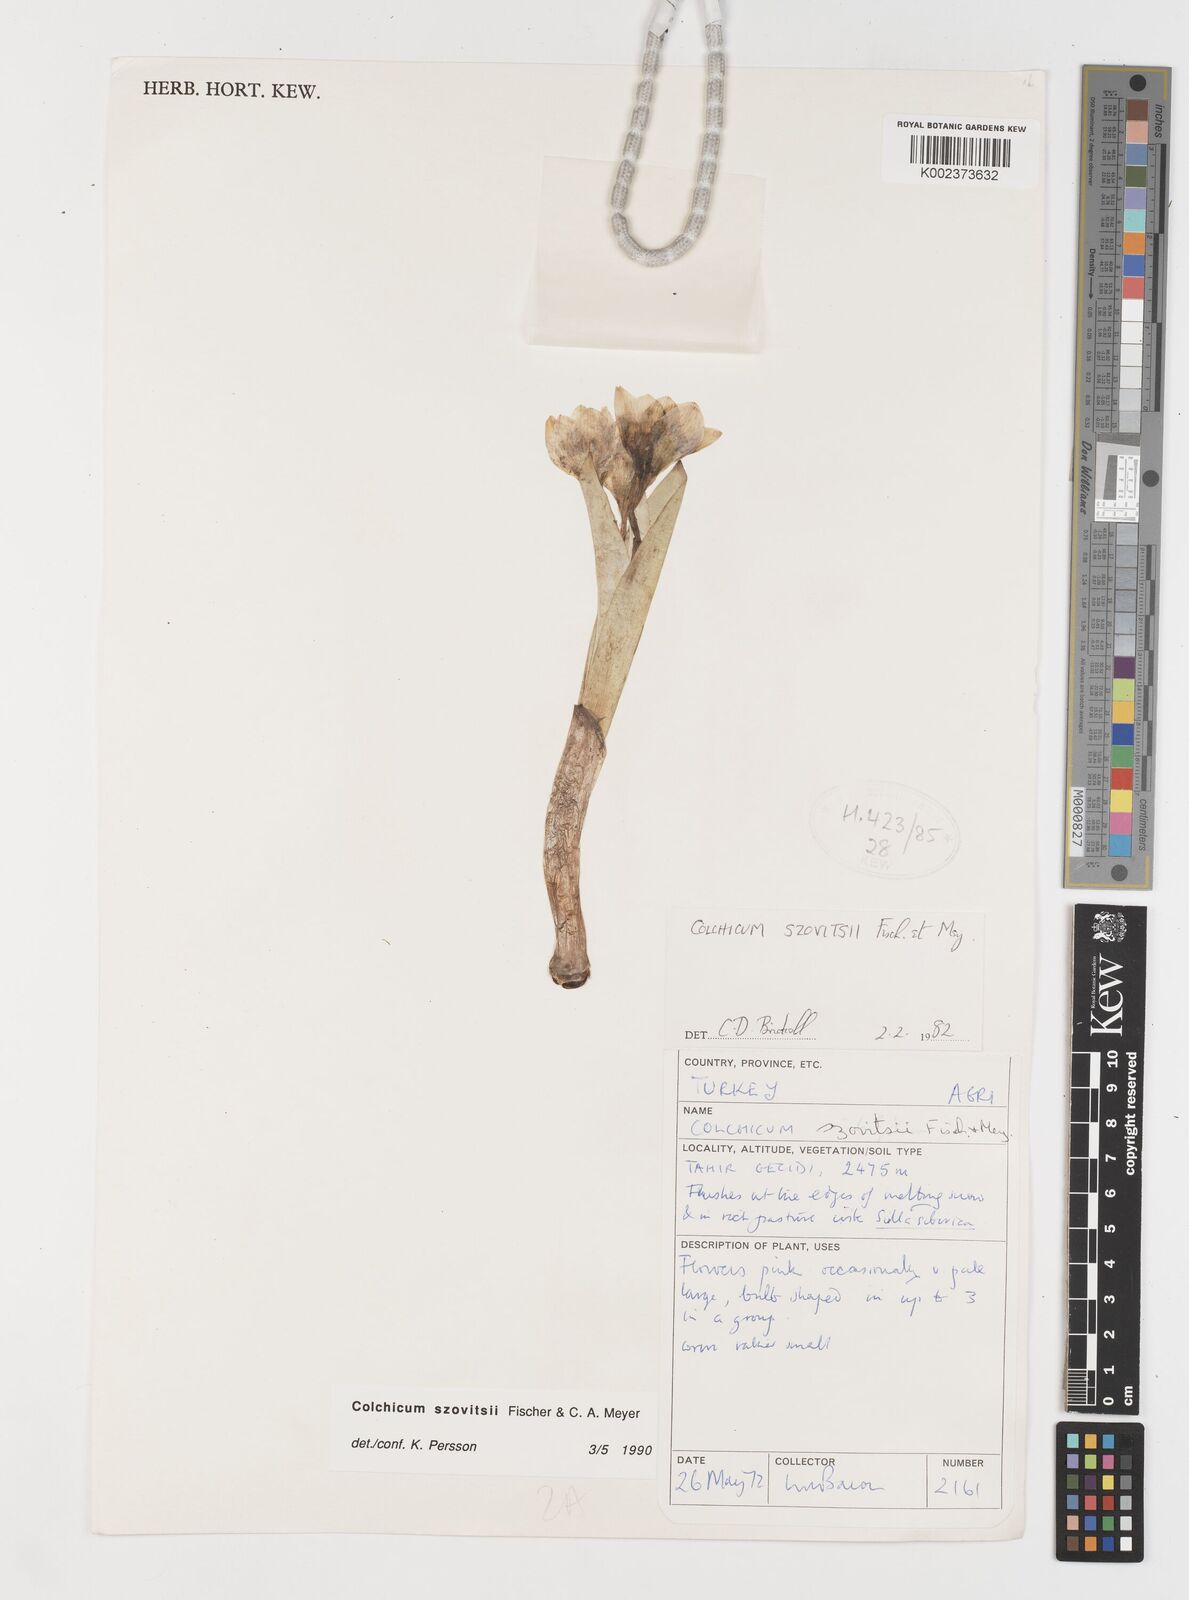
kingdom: Plantae
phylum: Tracheophyta
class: Liliopsida
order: Liliales
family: Colchicaceae
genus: Colchicum
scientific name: Colchicum szovitsii
